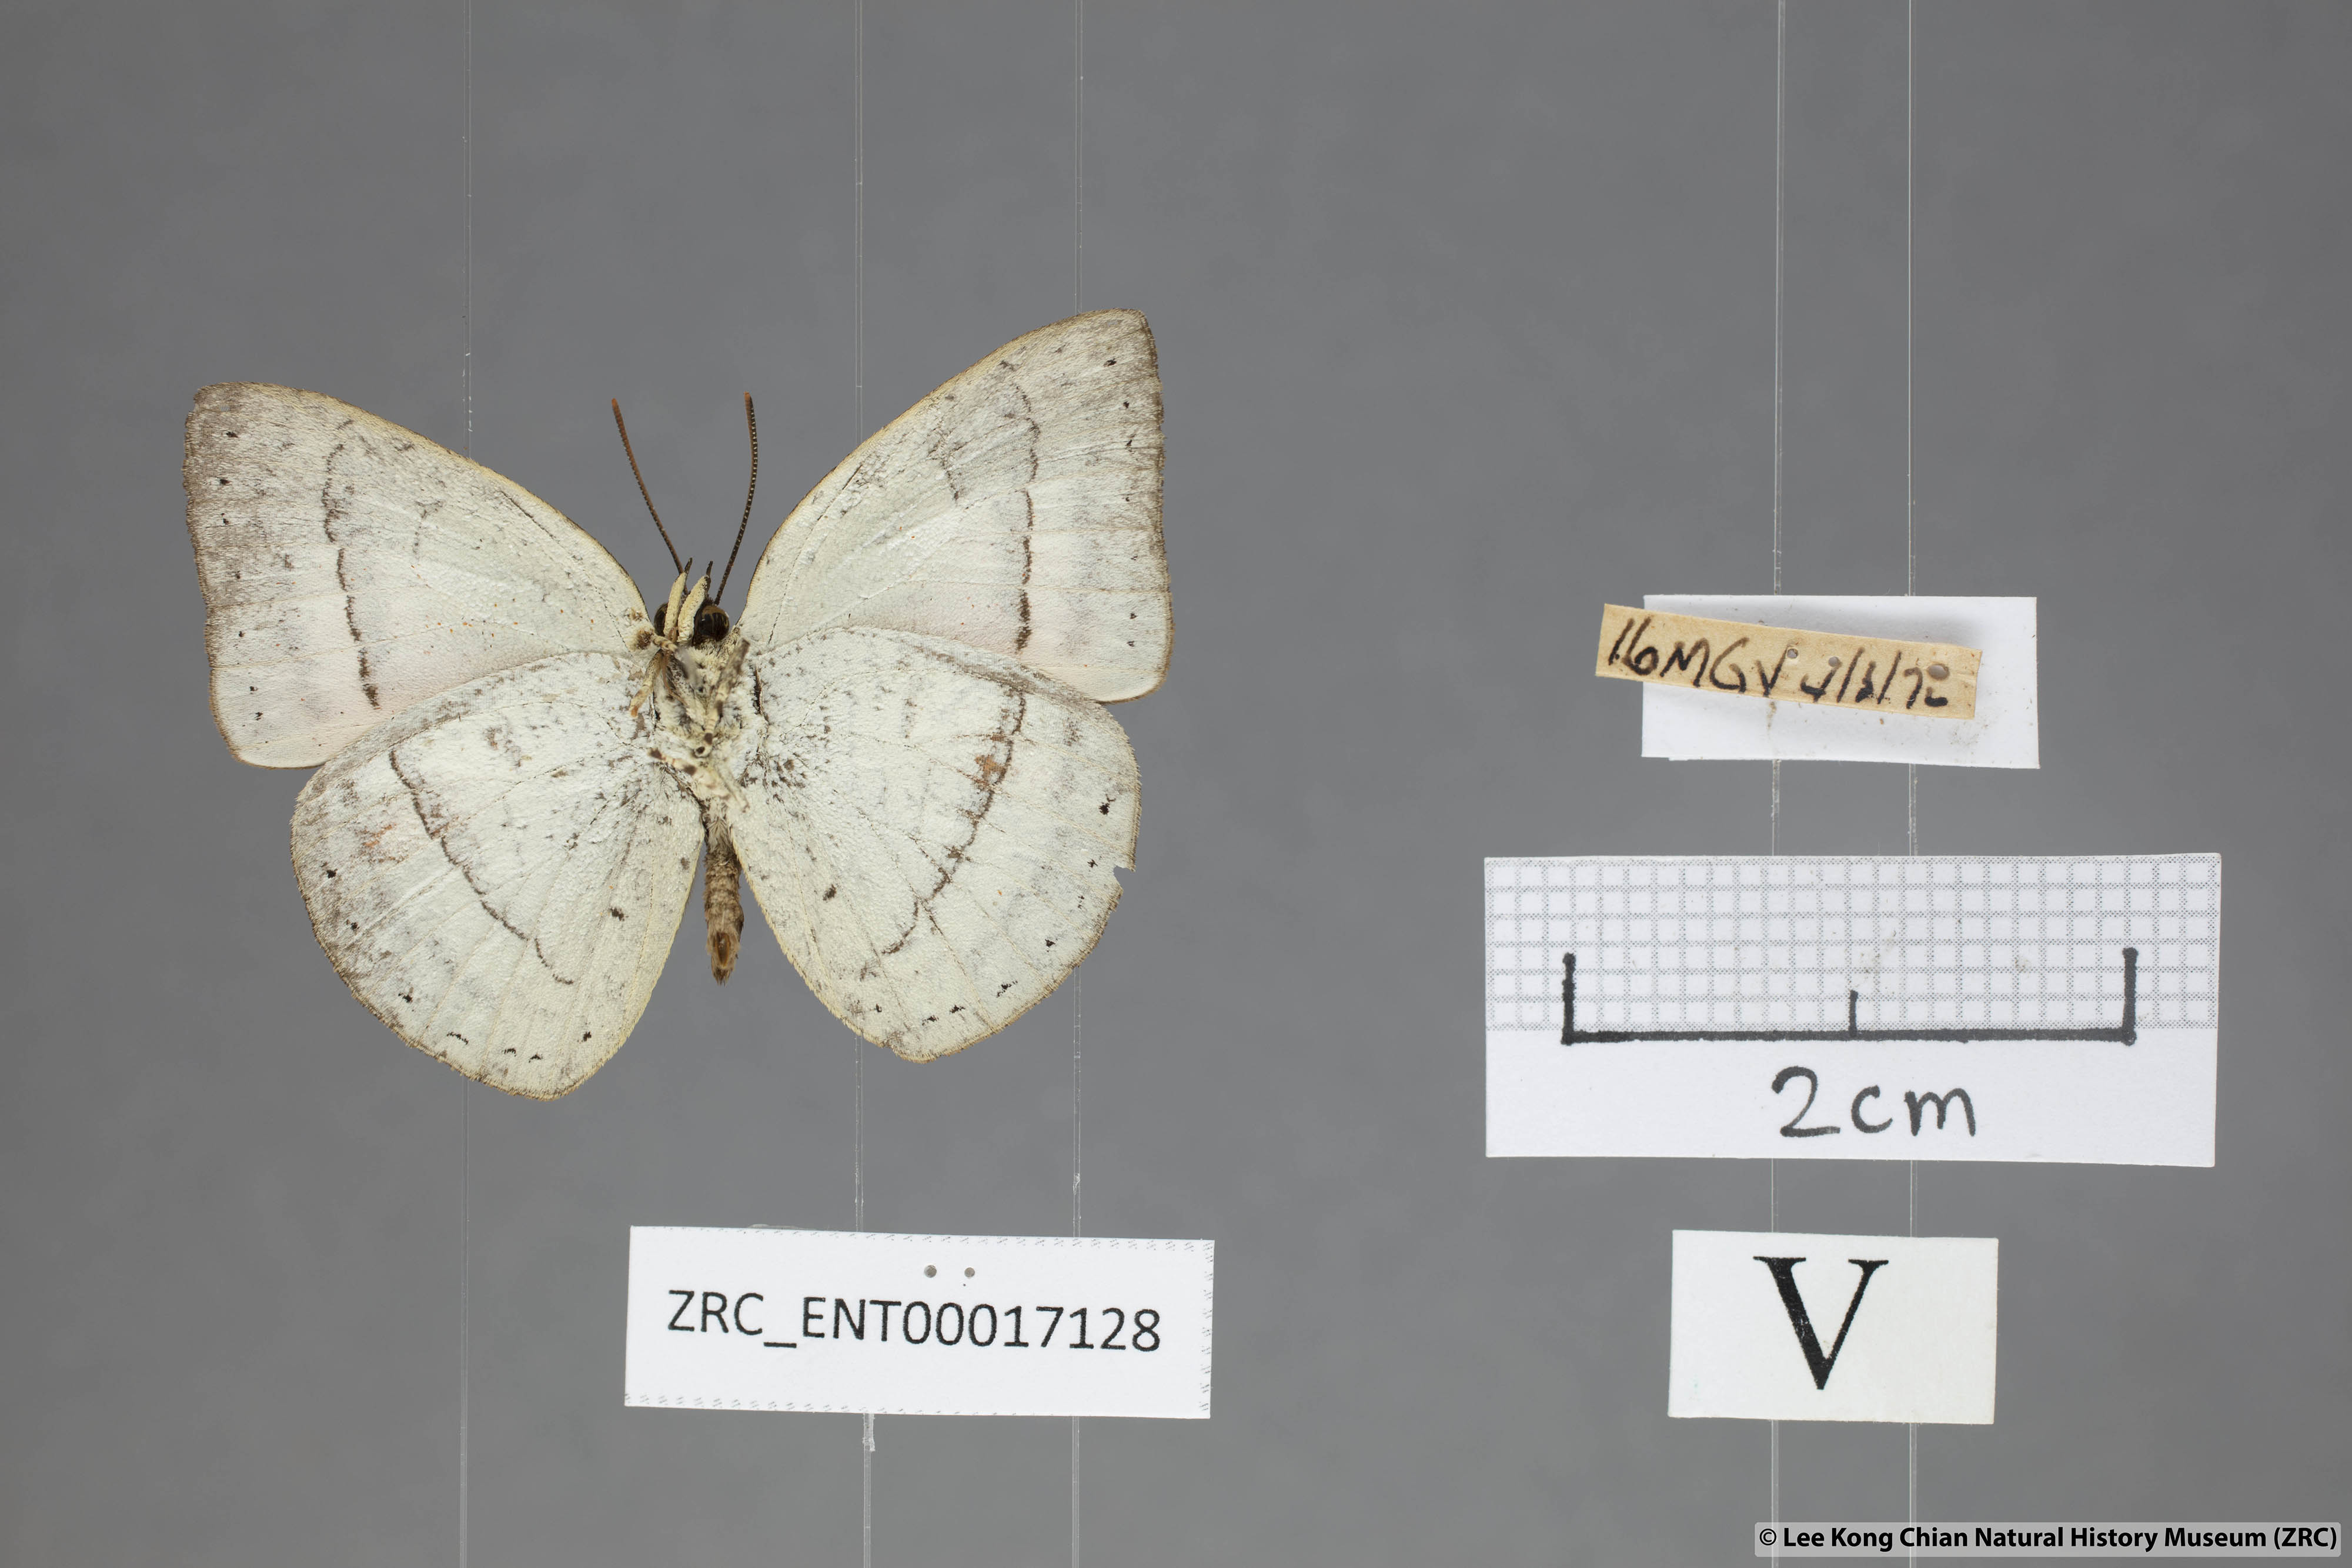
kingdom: Animalia
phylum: Arthropoda
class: Insecta
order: Lepidoptera
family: Lycaenidae
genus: Curetis
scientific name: Curetis freda
